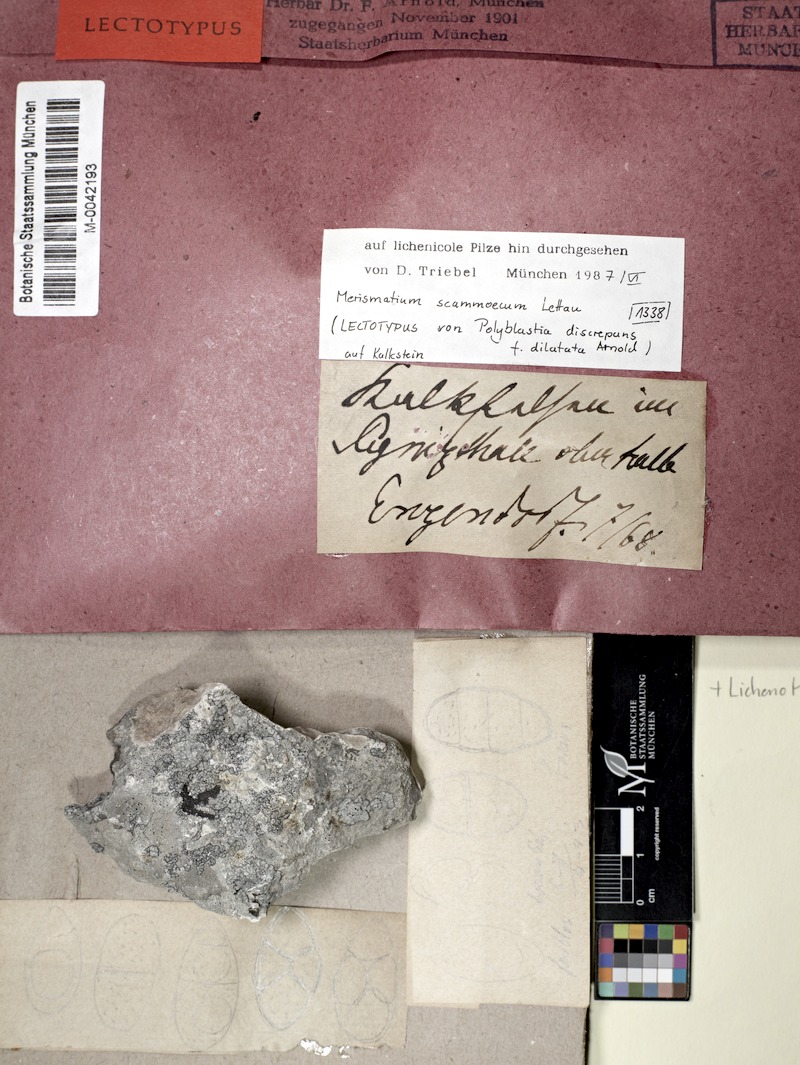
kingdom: Fungi
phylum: Ascomycota
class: Eurotiomycetes
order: Verrucariales
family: Verrucariaceae
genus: Halospora
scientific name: Halospora scammoeca
